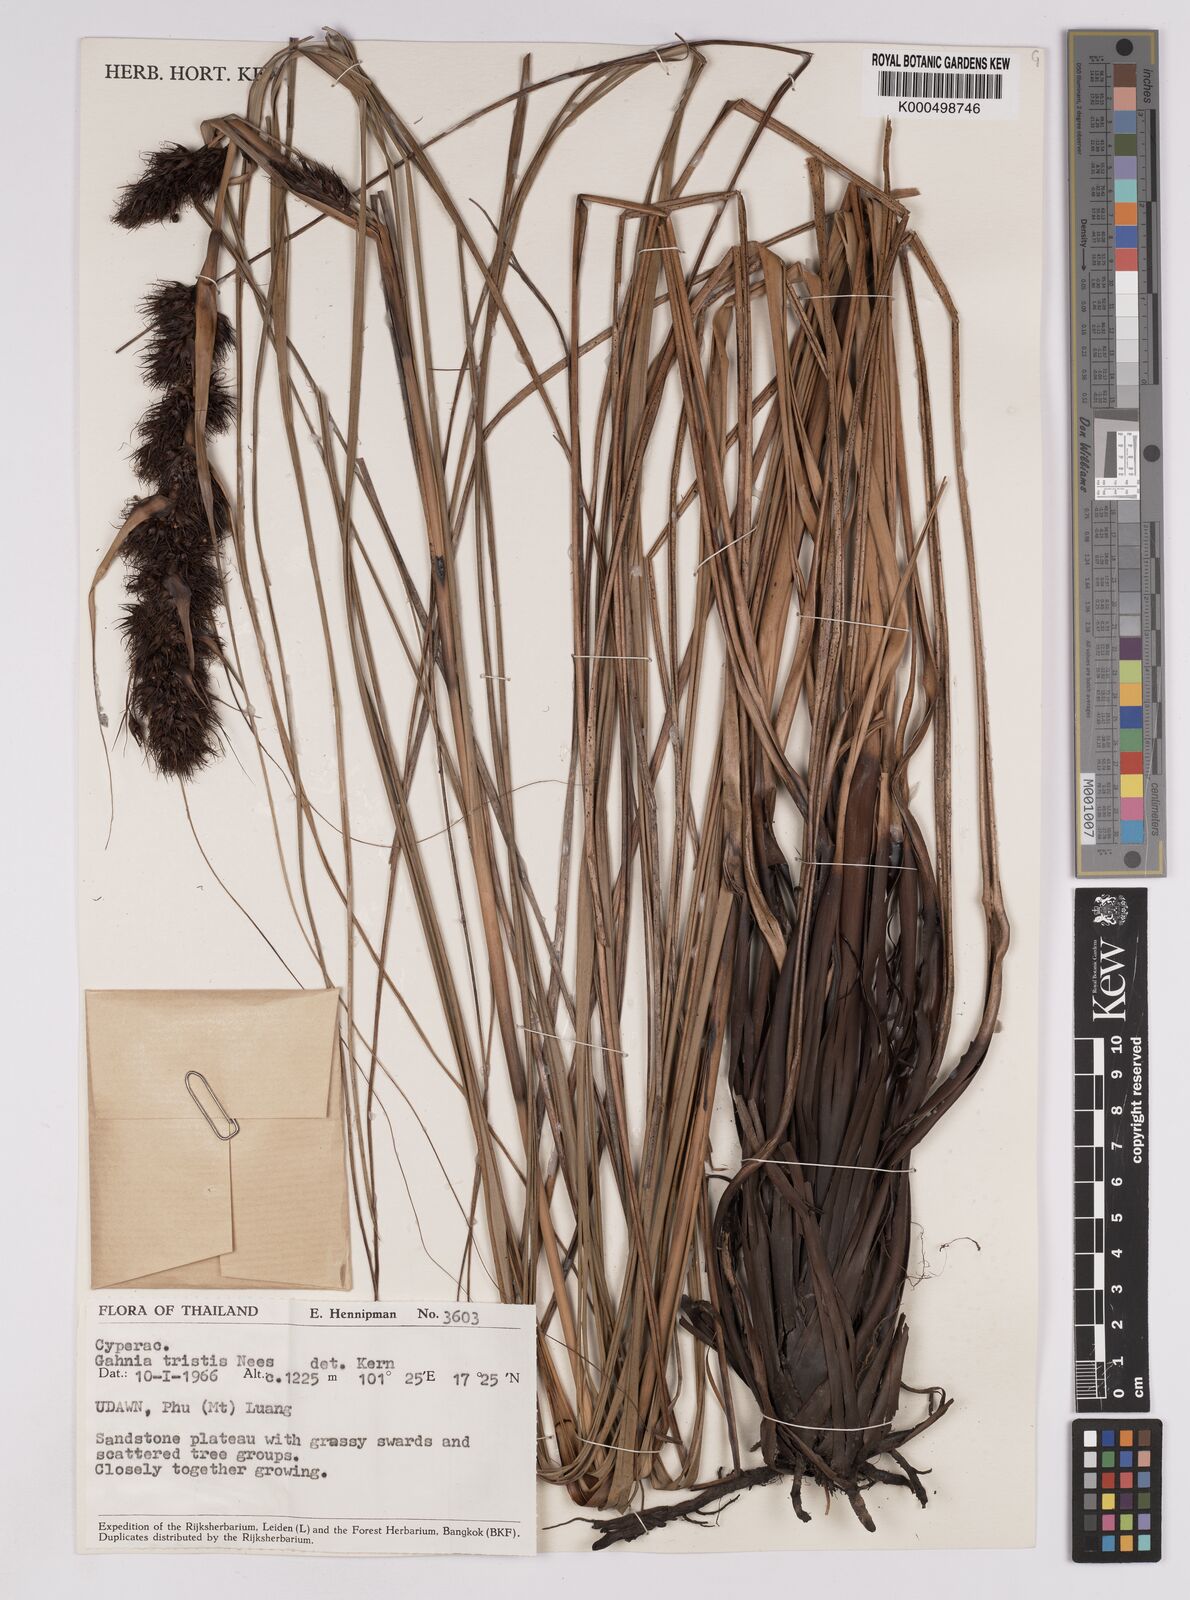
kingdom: Plantae
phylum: Tracheophyta
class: Liliopsida
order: Poales
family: Cyperaceae
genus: Gahnia
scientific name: Gahnia tristis
